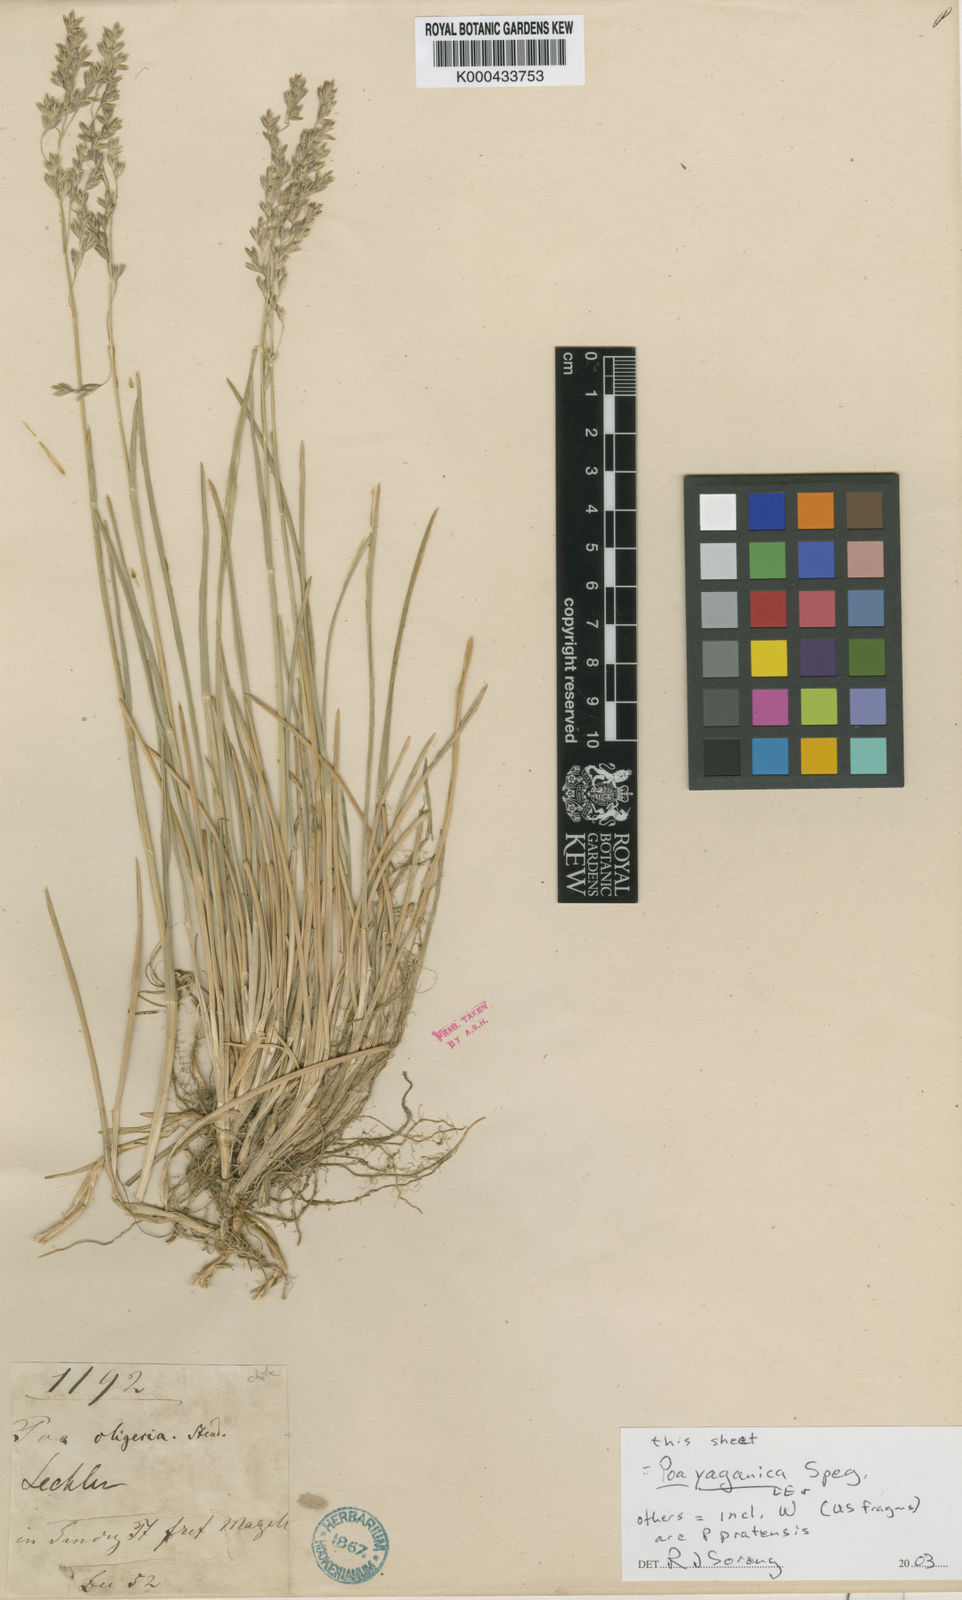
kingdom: Plantae
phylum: Tracheophyta
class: Liliopsida
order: Poales
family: Poaceae
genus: Poa
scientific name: Poa yaganica
